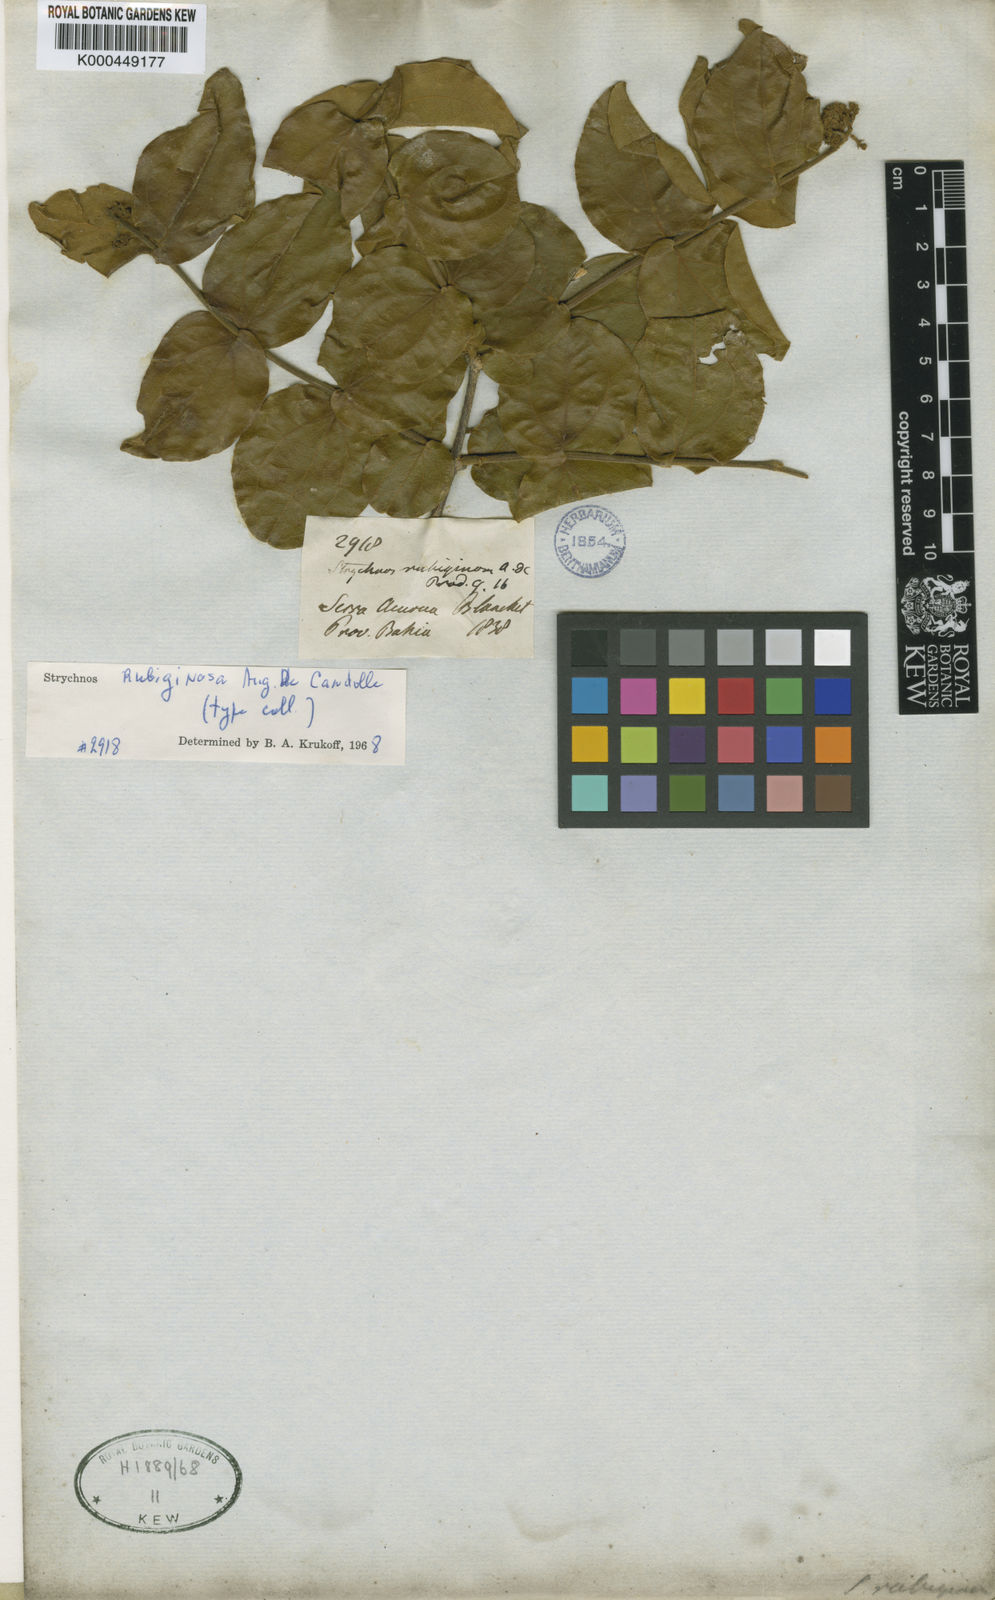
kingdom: Plantae
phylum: Tracheophyta
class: Magnoliopsida
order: Gentianales
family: Loganiaceae
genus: Strychnos
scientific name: Strychnos rubiginosa
